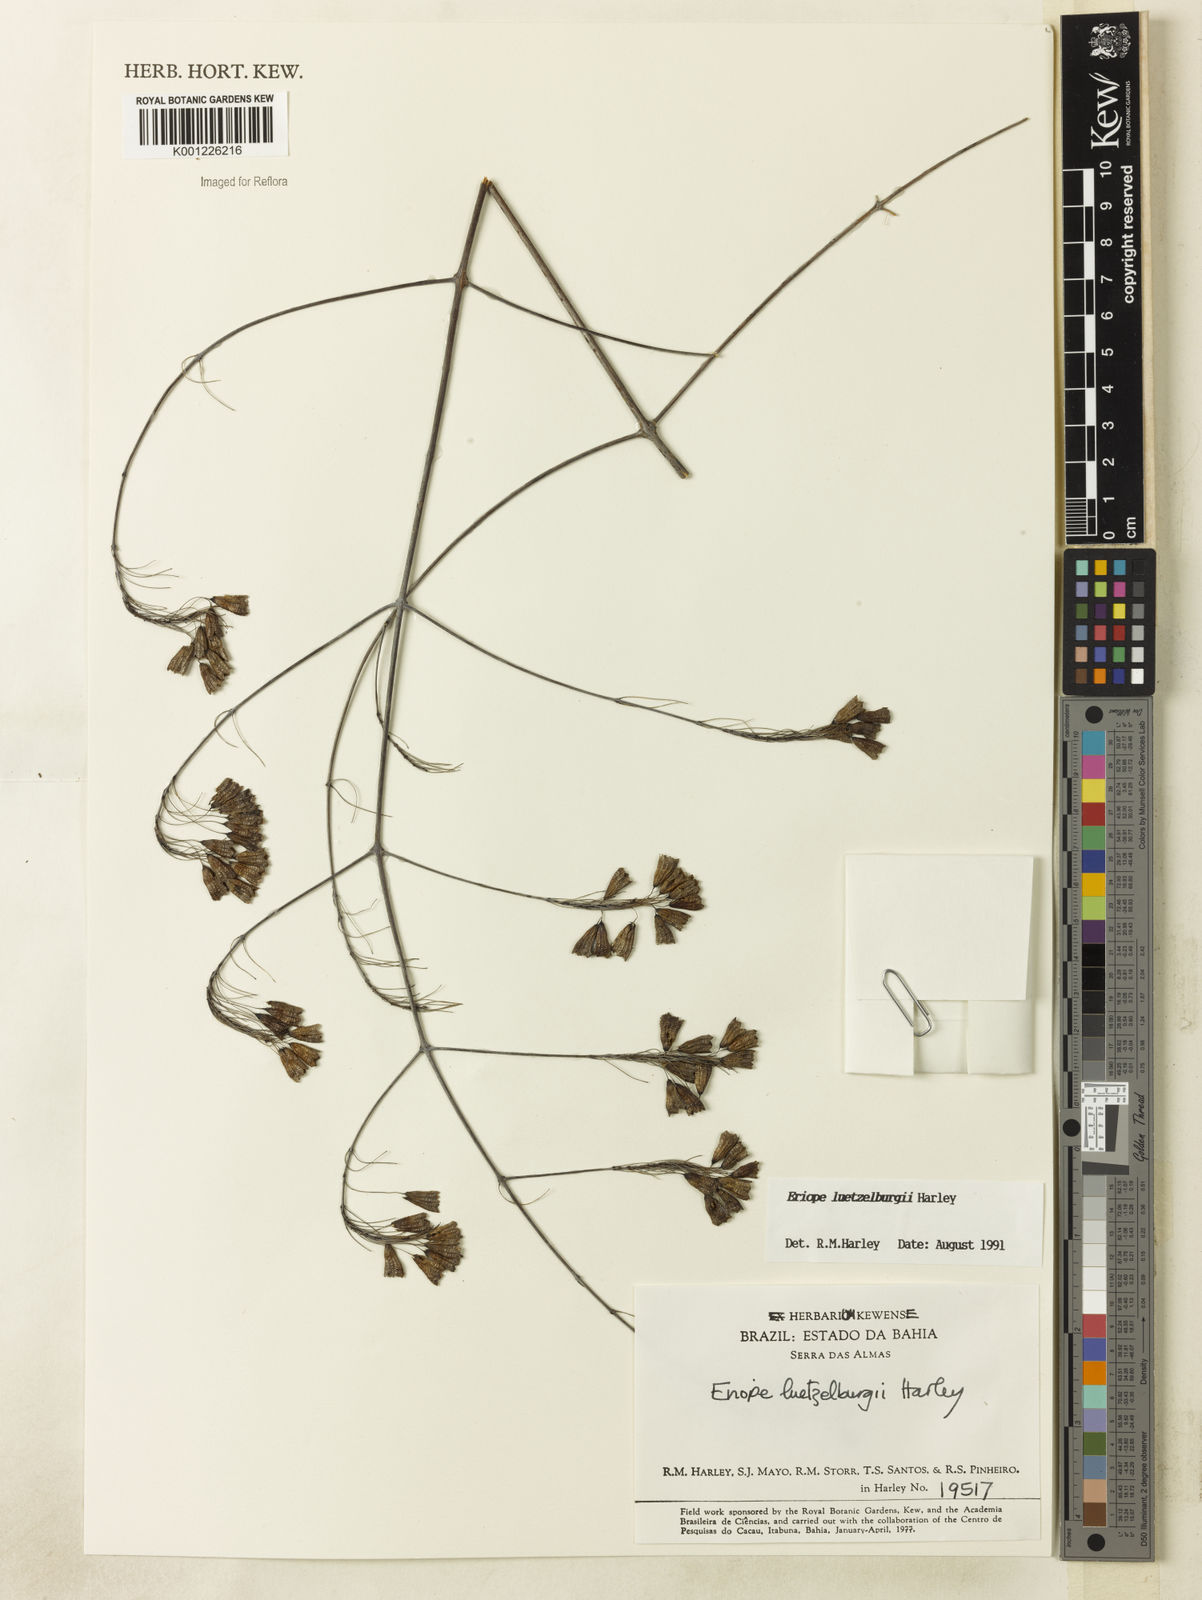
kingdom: Plantae
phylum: Tracheophyta
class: Magnoliopsida
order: Lamiales
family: Lamiaceae
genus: Eriope
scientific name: Eriope luetzelburgii
